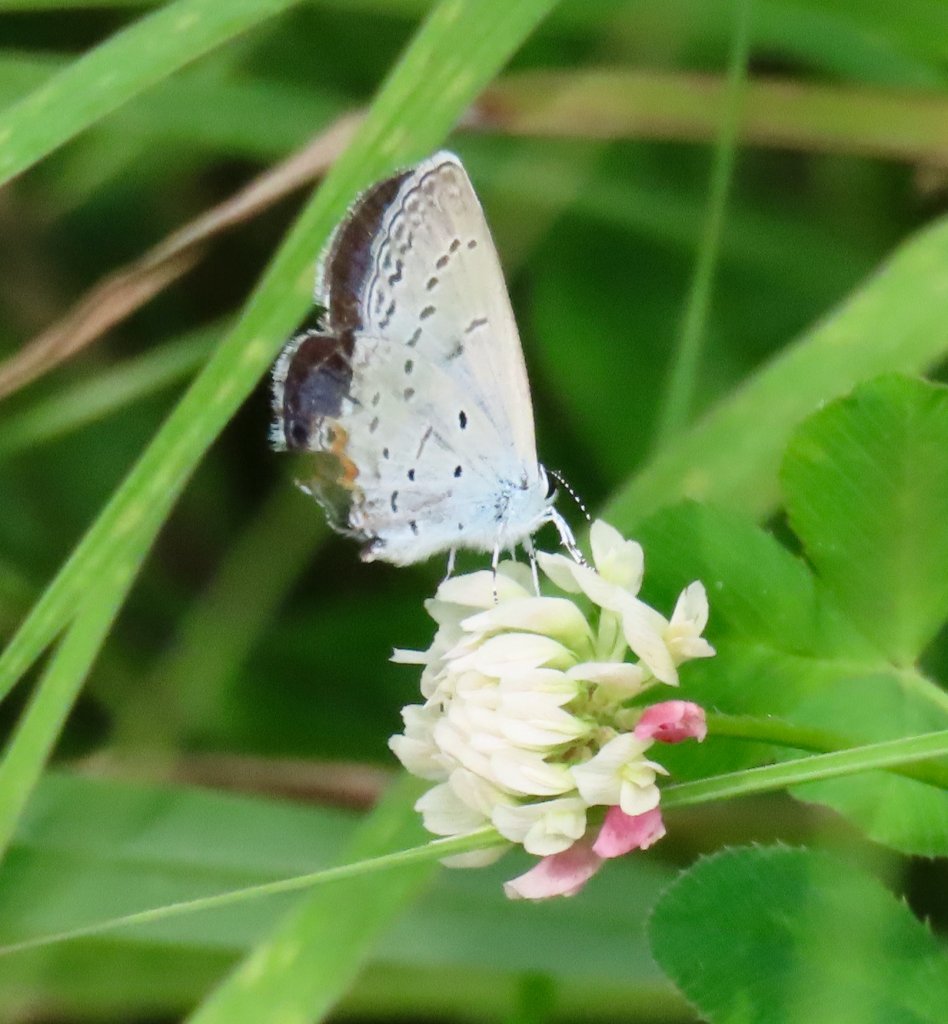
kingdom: Animalia
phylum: Arthropoda
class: Insecta
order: Lepidoptera
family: Lycaenidae
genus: Elkalyce
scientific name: Elkalyce comyntas
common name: Eastern Tailed-Blue
